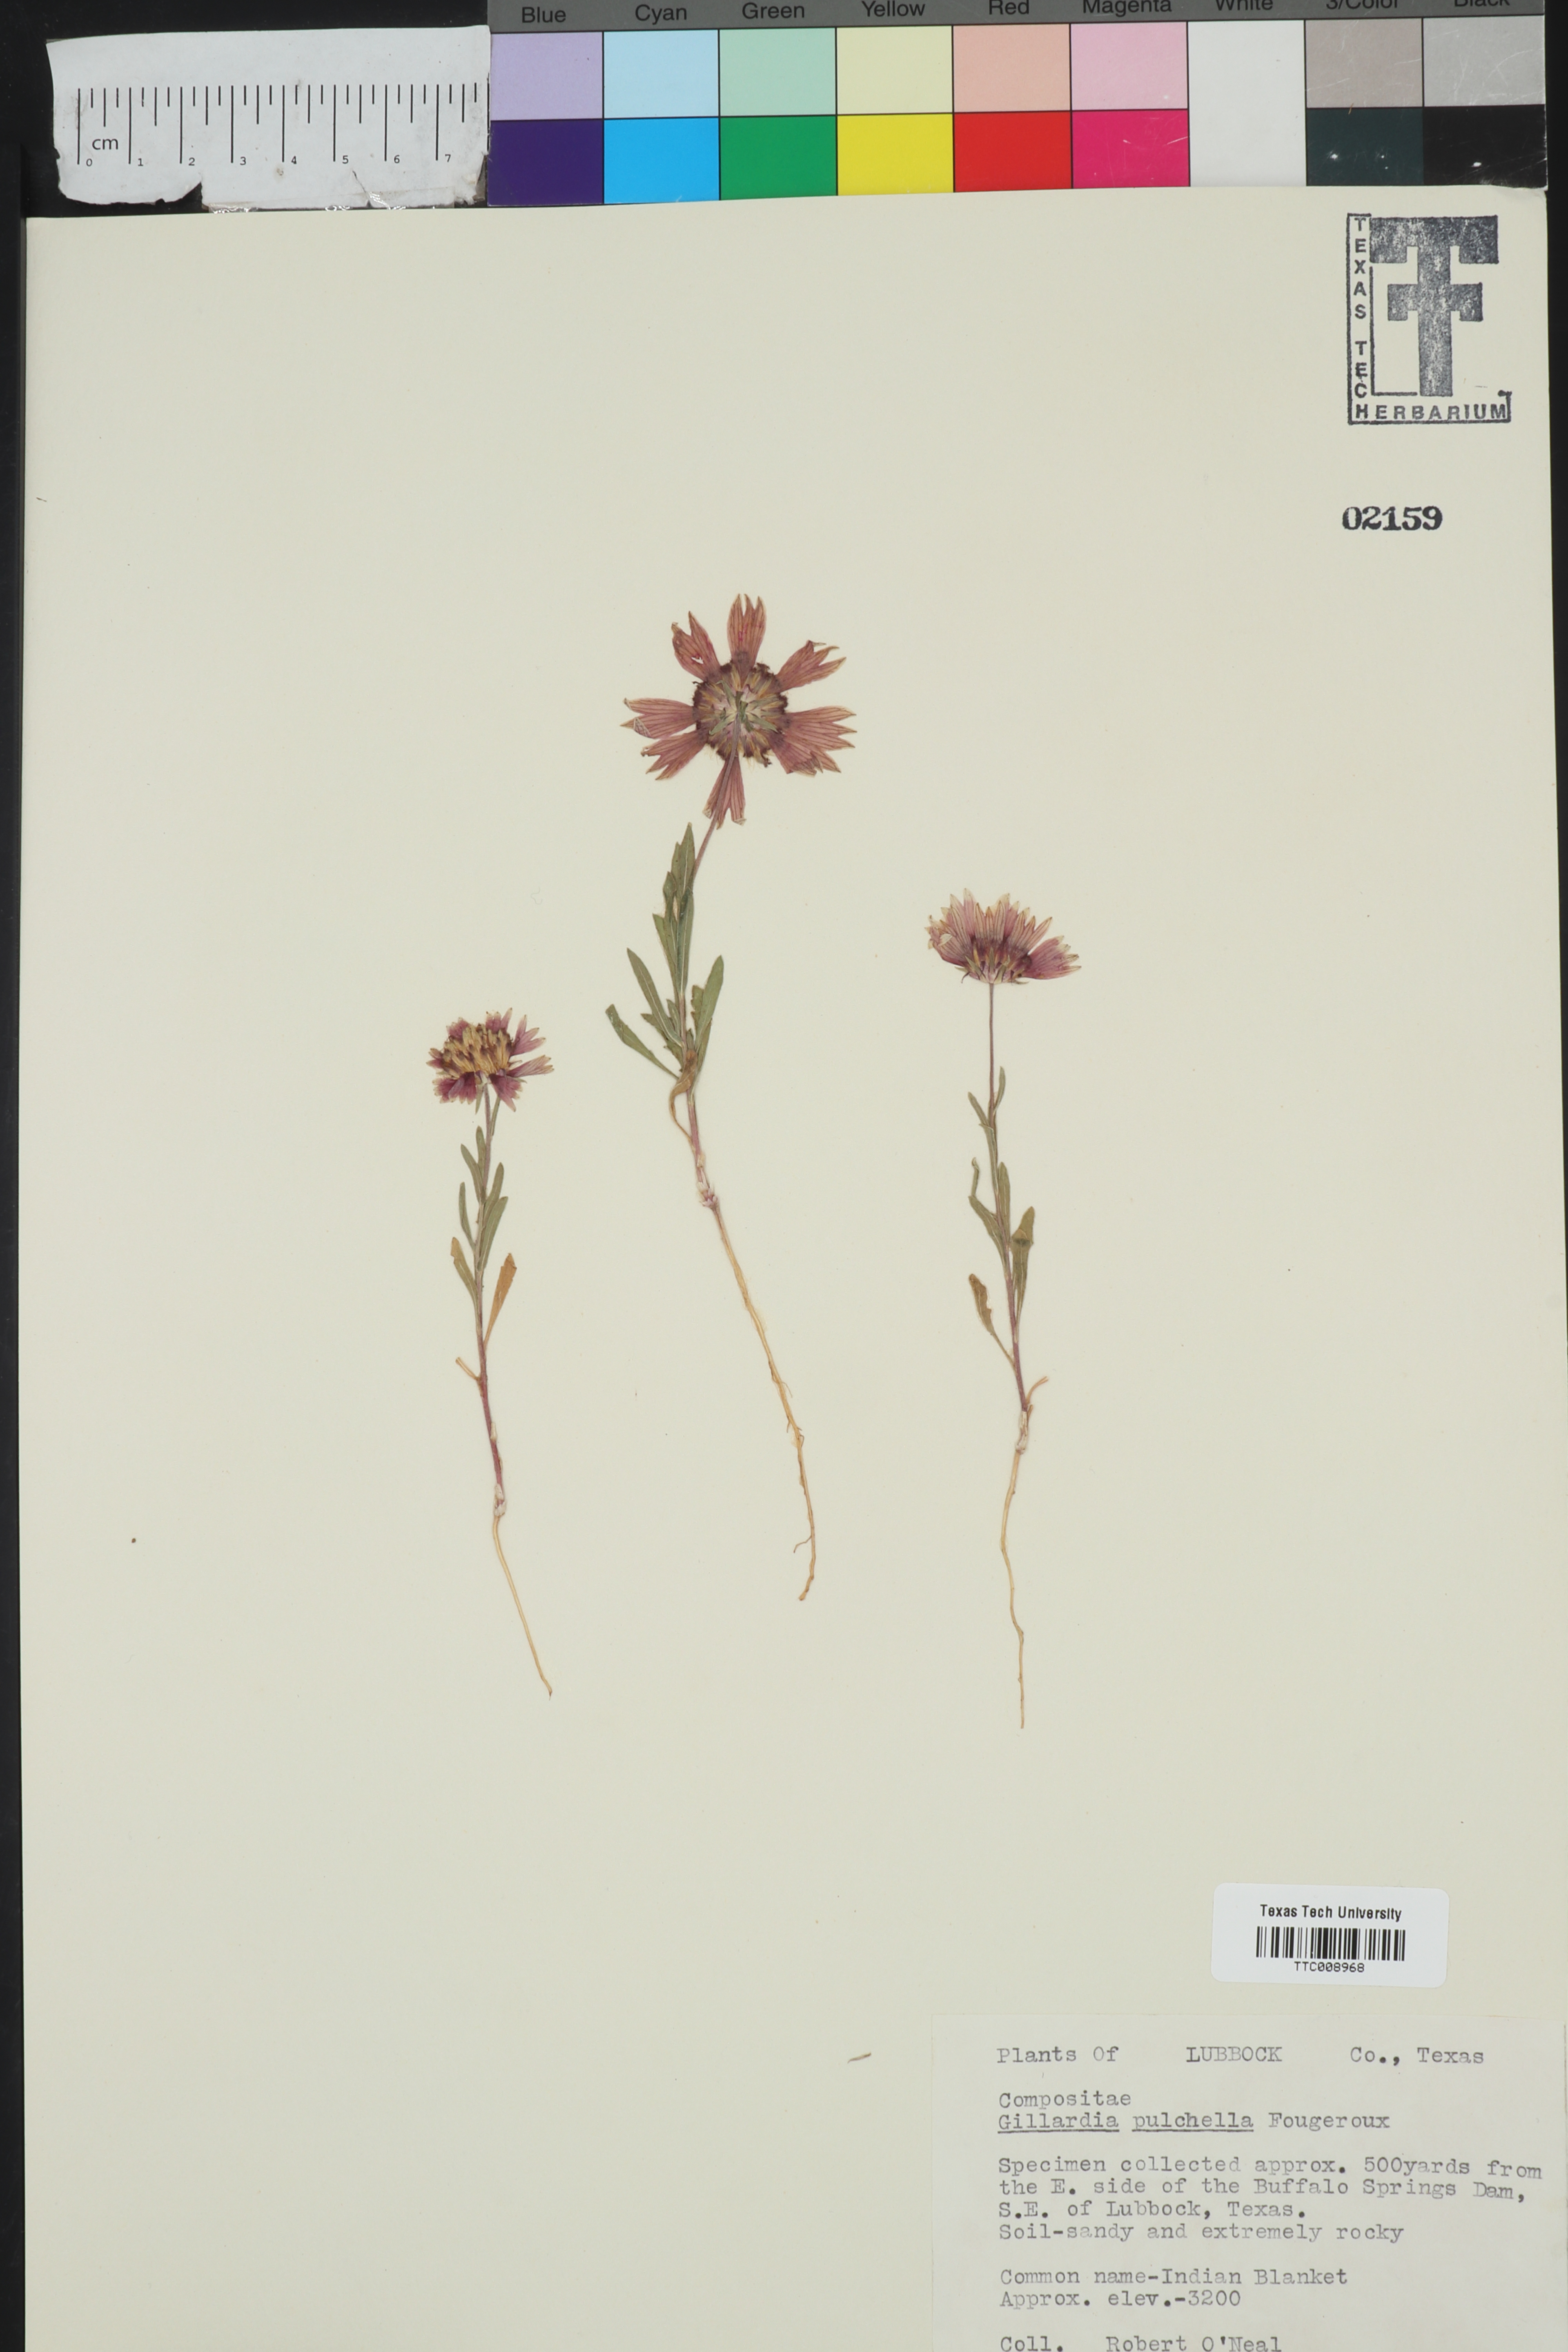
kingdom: Plantae
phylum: Tracheophyta
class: Magnoliopsida
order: Asterales
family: Asteraceae
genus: Gaillardia
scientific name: Gaillardia pulchella
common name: Firewheel
